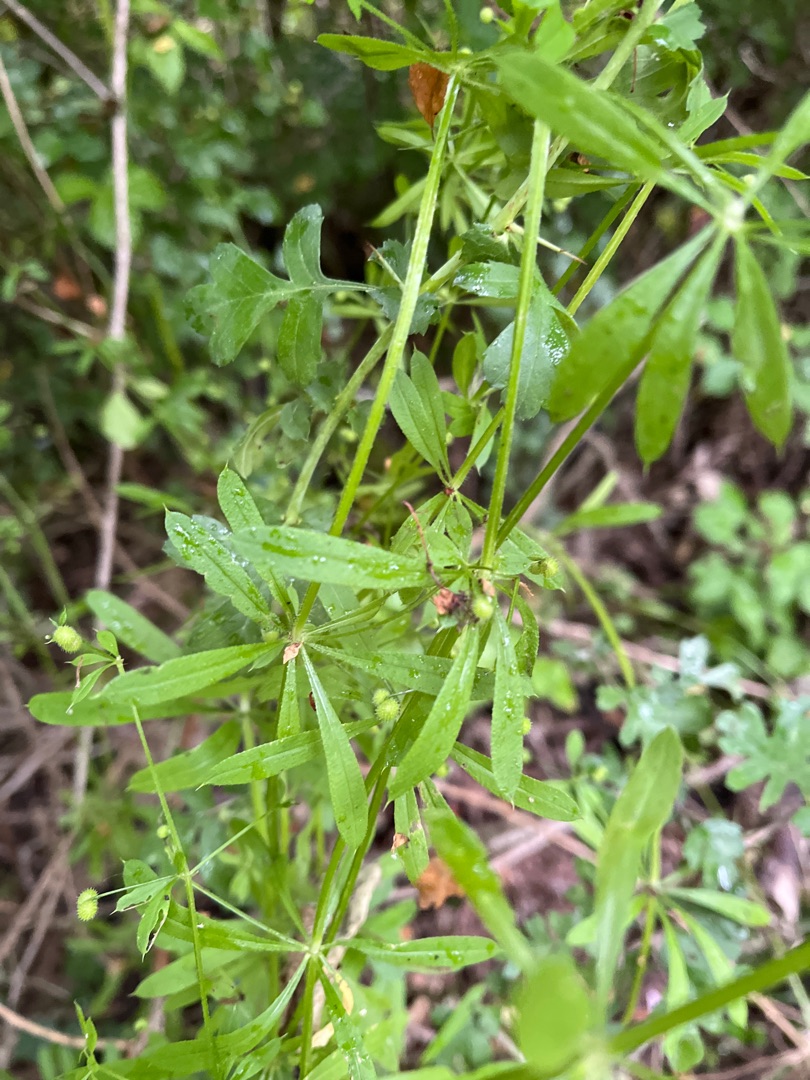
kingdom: Plantae
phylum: Tracheophyta
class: Magnoliopsida
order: Gentianales
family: Rubiaceae
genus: Galium
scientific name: Galium aparine
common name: Burre-snerre
